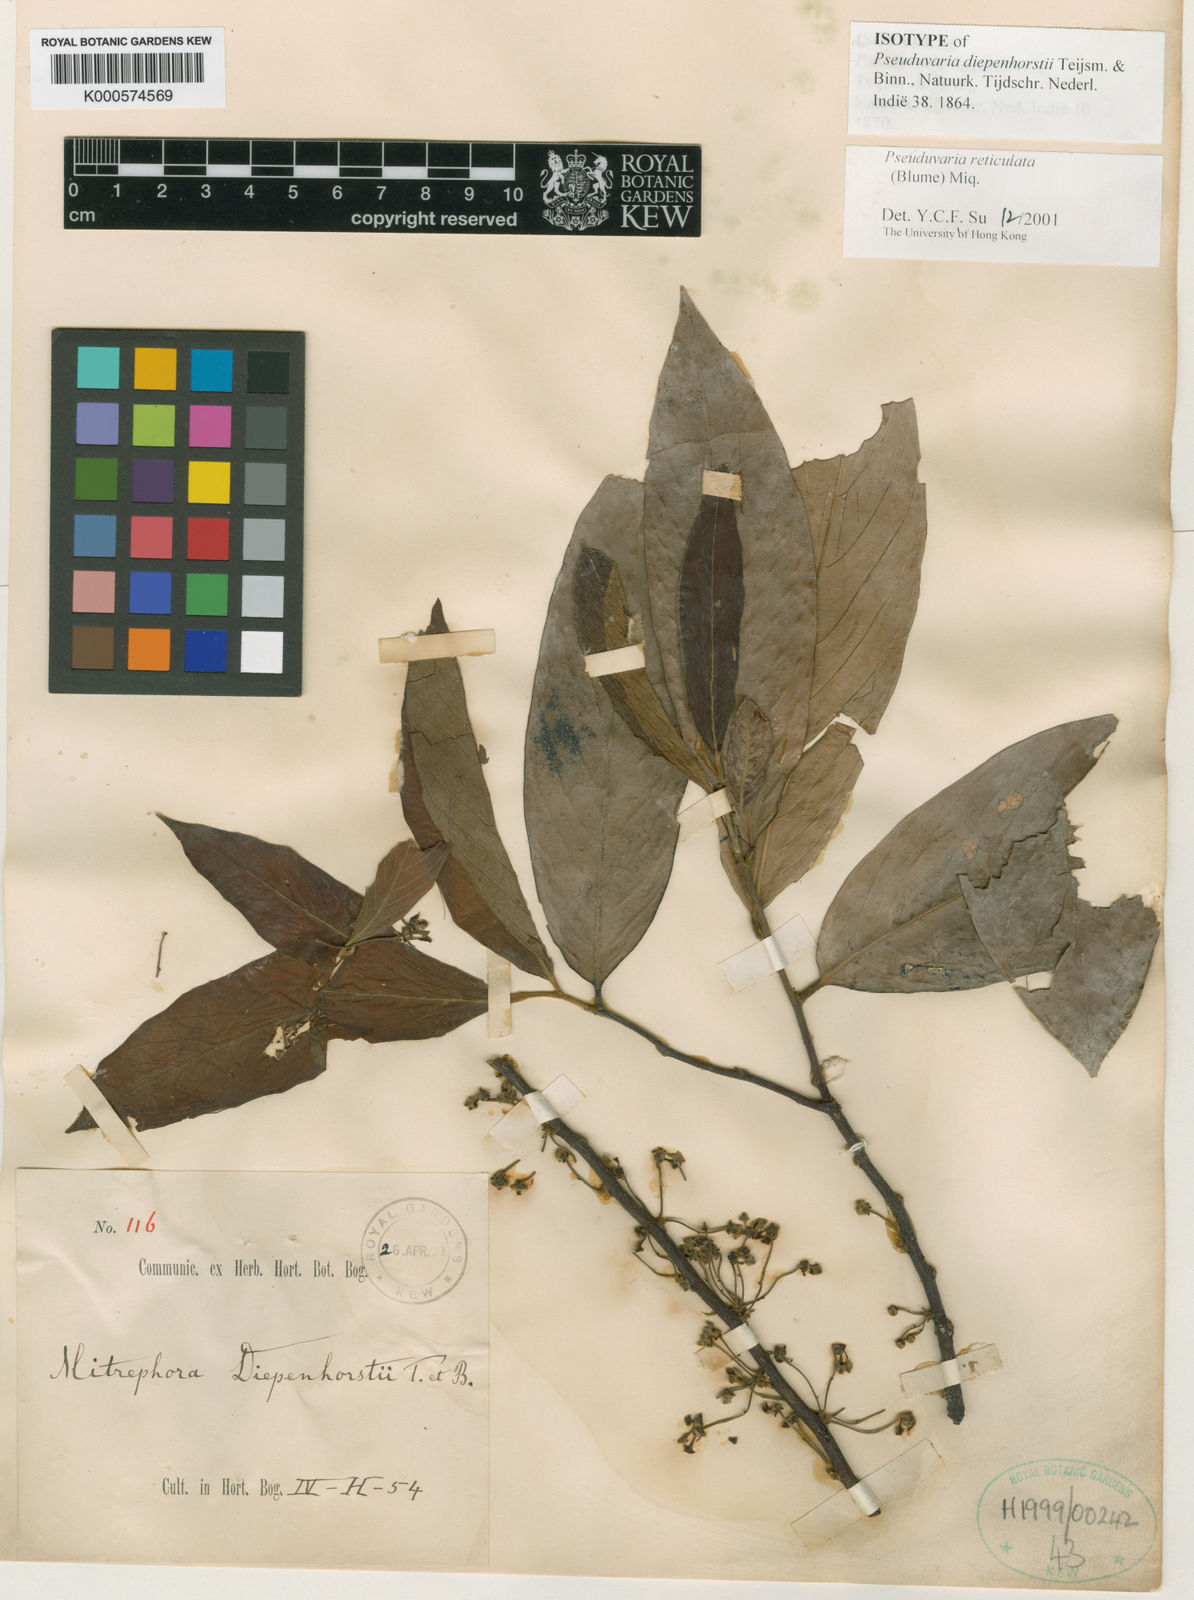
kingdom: Plantae
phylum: Tracheophyta
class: Magnoliopsida
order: Magnoliales
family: Annonaceae
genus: Pseuduvaria
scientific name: Pseuduvaria reticulata
